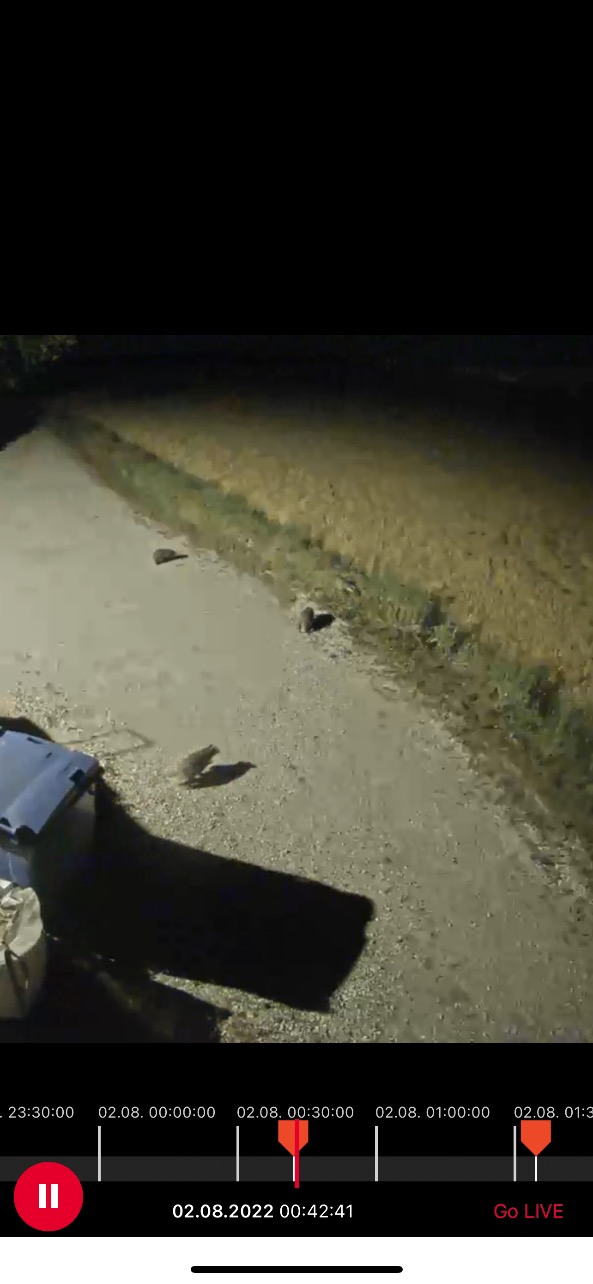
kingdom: Animalia
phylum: Chordata
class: Mammalia
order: Carnivora
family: Mustelidae
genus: Meles
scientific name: Meles meles
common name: Grævling
